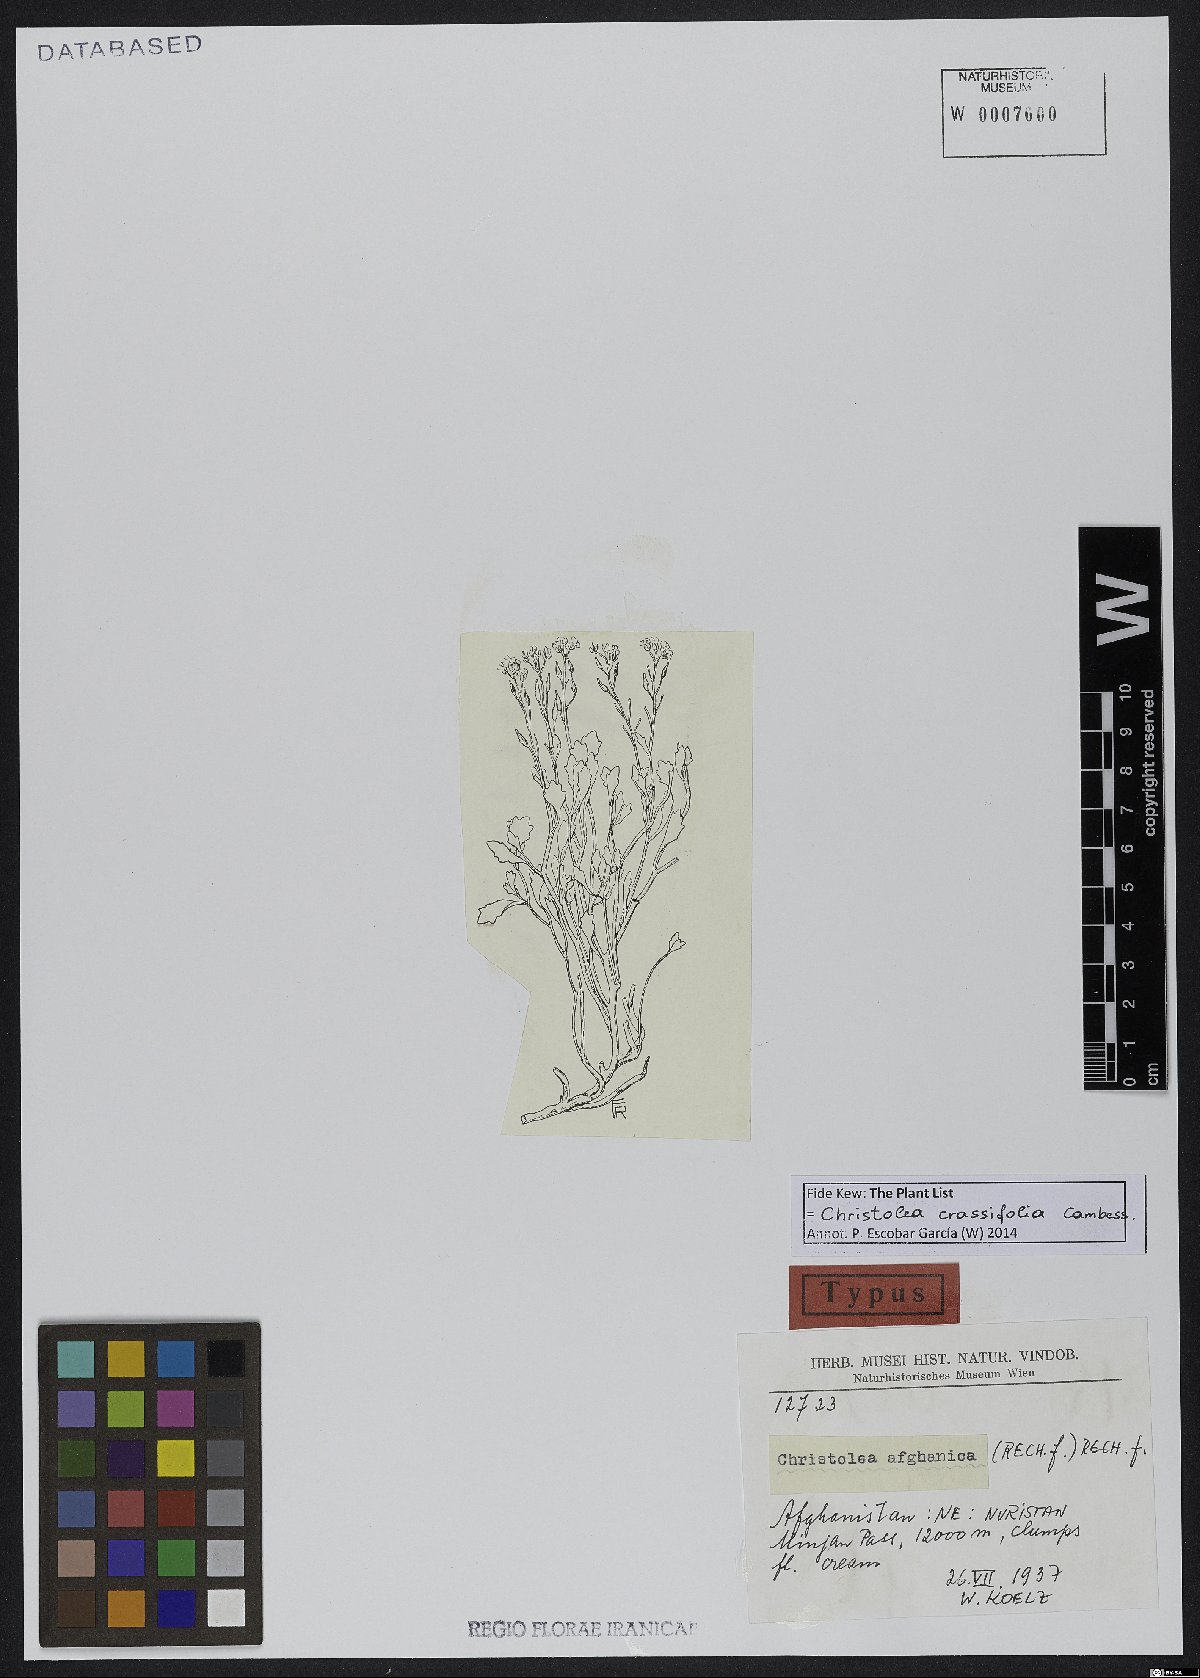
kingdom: Plantae
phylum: Tracheophyta
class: Magnoliopsida
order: Brassicales
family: Brassicaceae
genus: Christolea
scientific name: Christolea crassifolia
